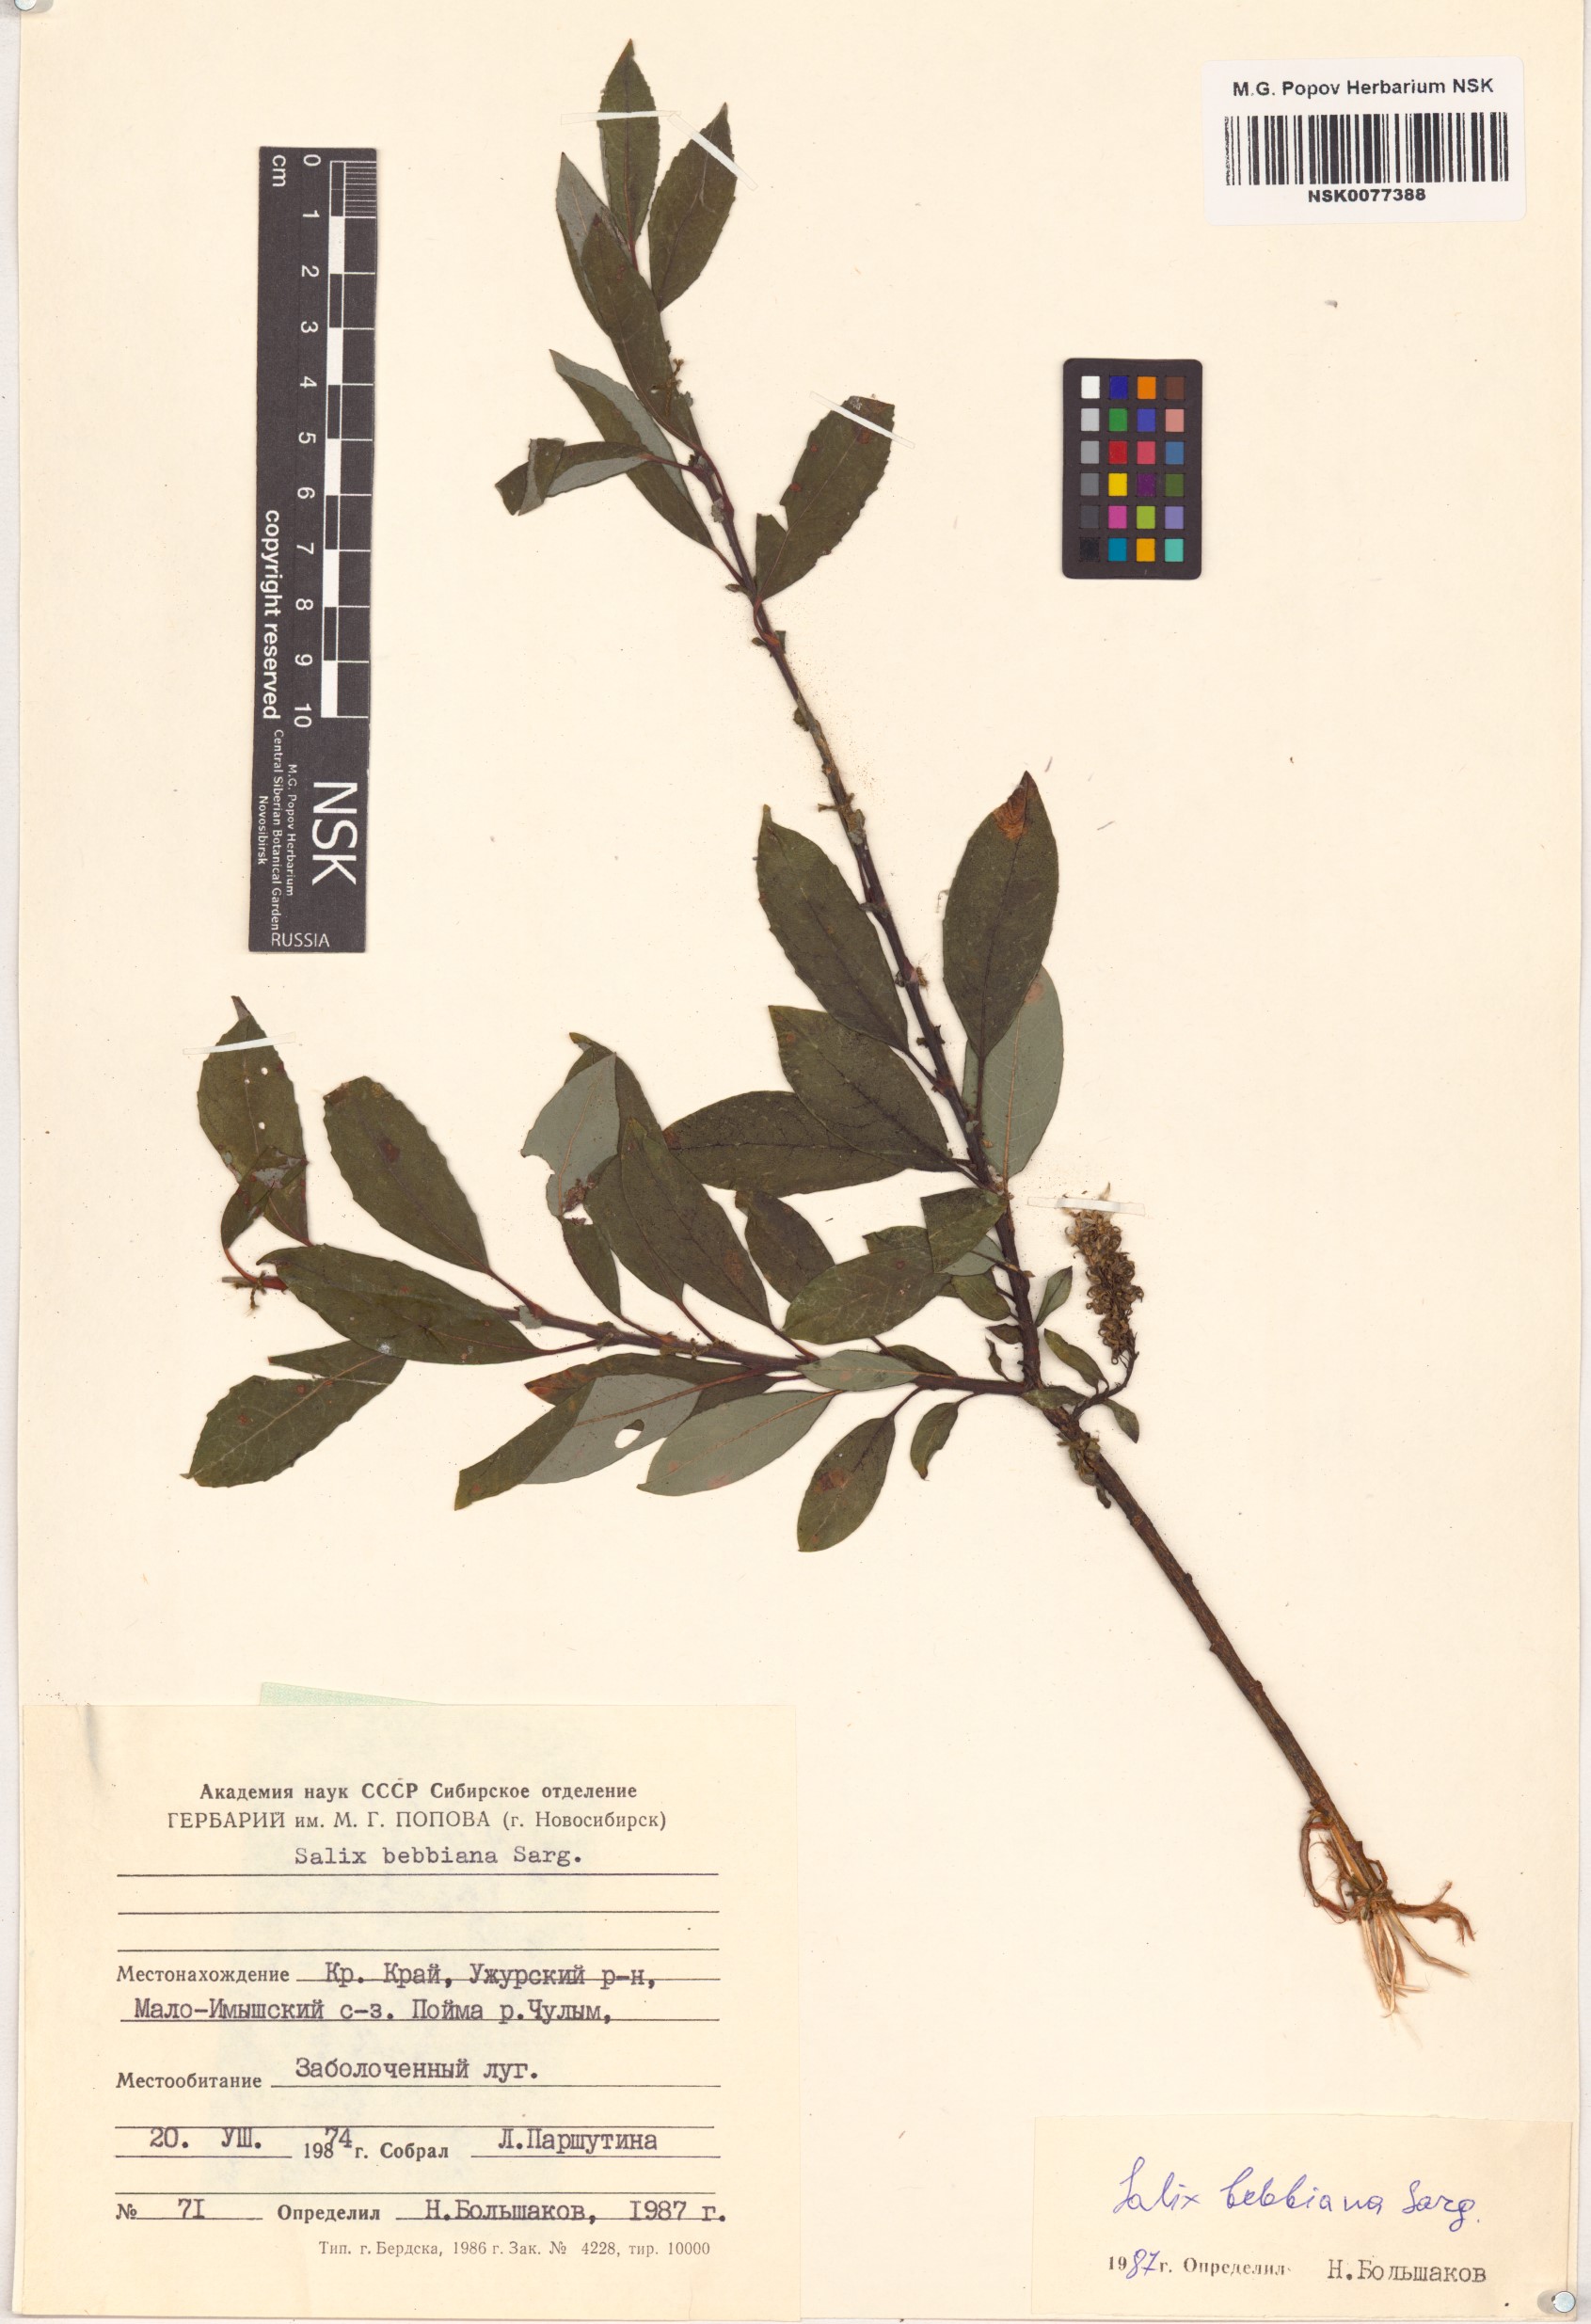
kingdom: Plantae
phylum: Tracheophyta
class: Magnoliopsida
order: Malpighiales
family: Salicaceae
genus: Salix
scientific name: Salix bebbiana
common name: Bebb's willow
